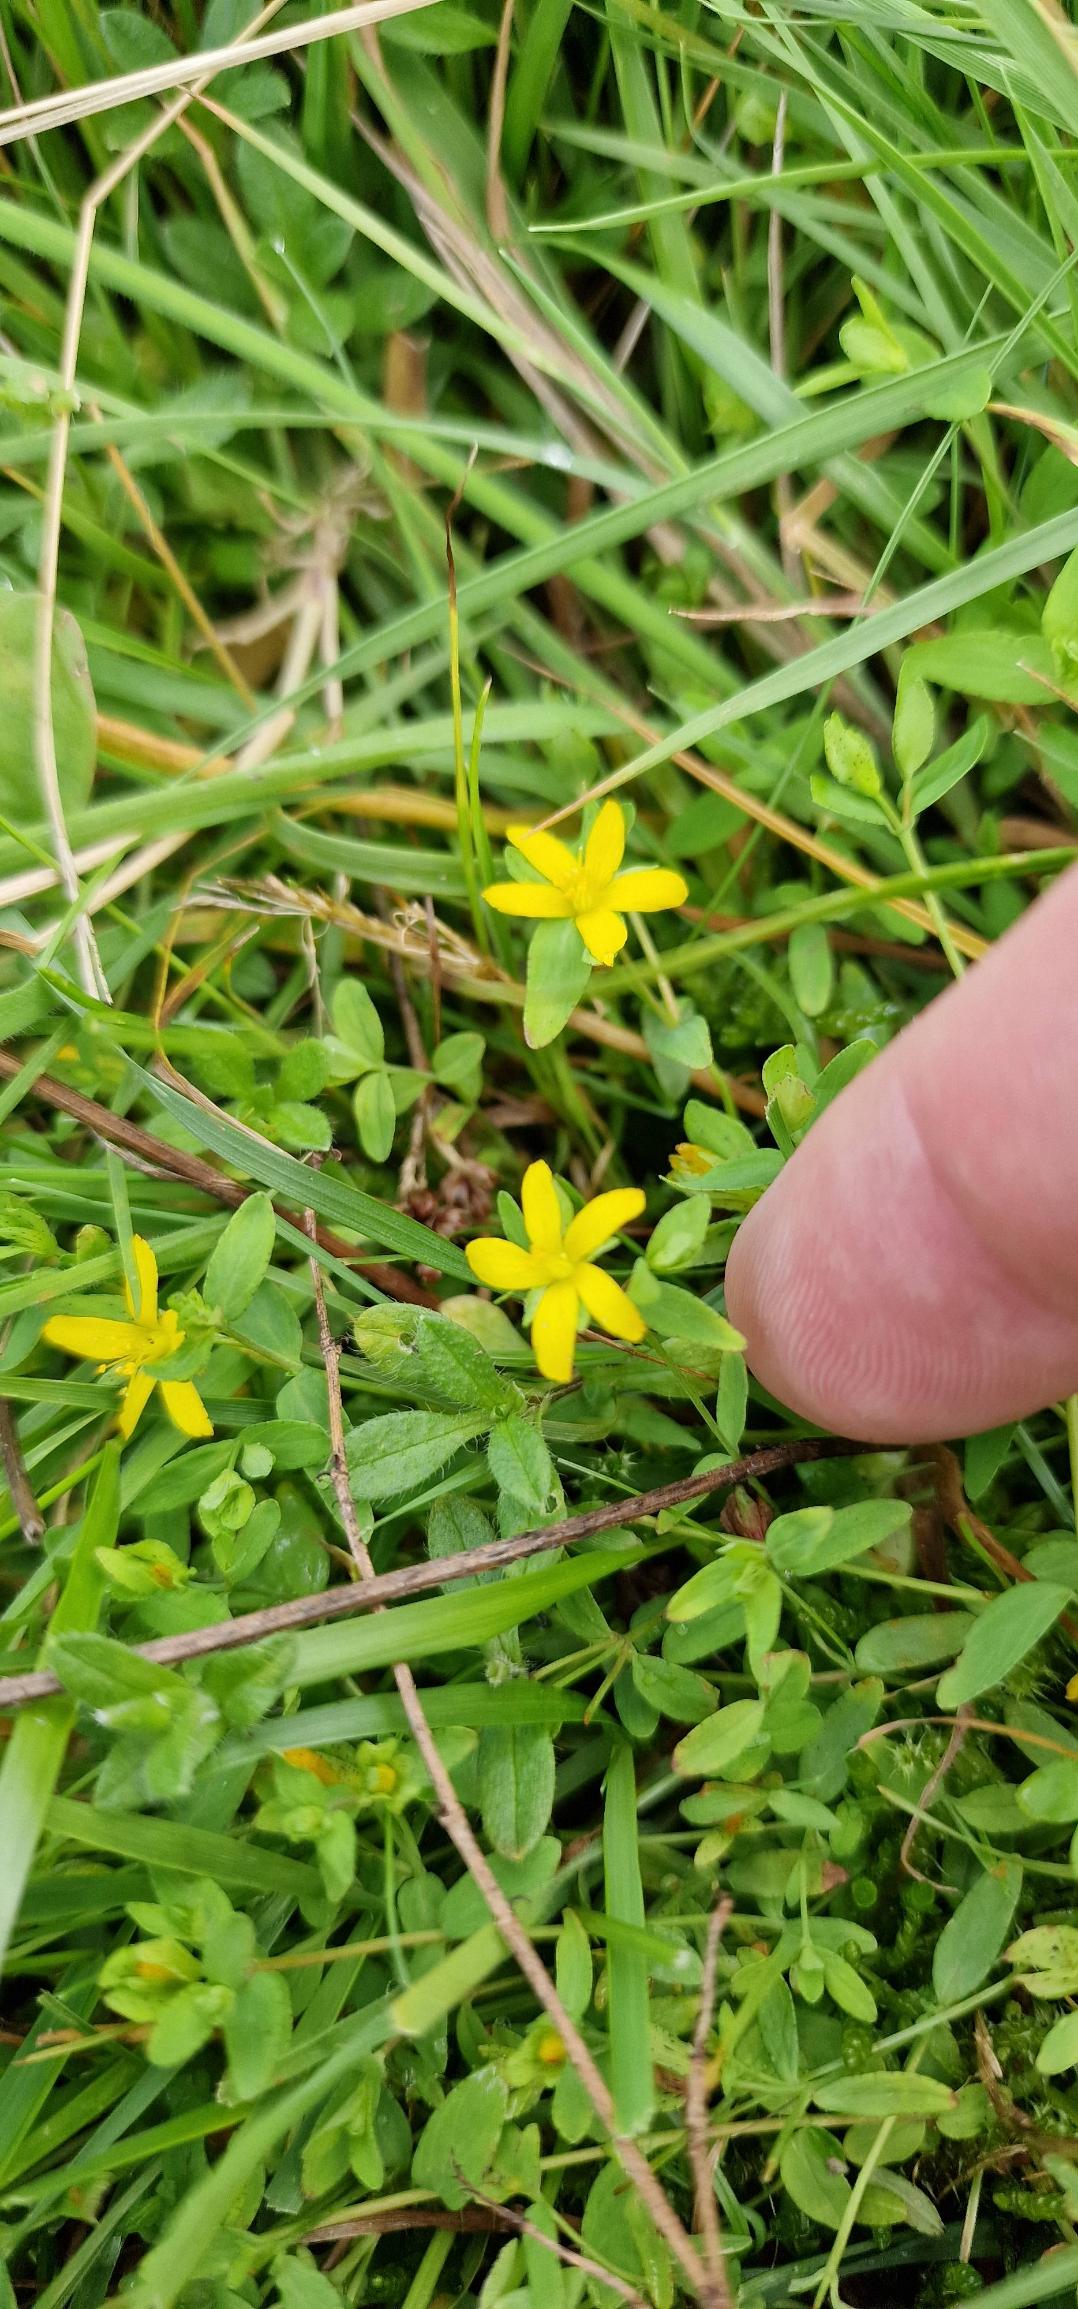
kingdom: Plantae
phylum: Tracheophyta
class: Magnoliopsida
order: Malpighiales
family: Hypericaceae
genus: Hypericum
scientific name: Hypericum humifusum
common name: Dværg-perikon
